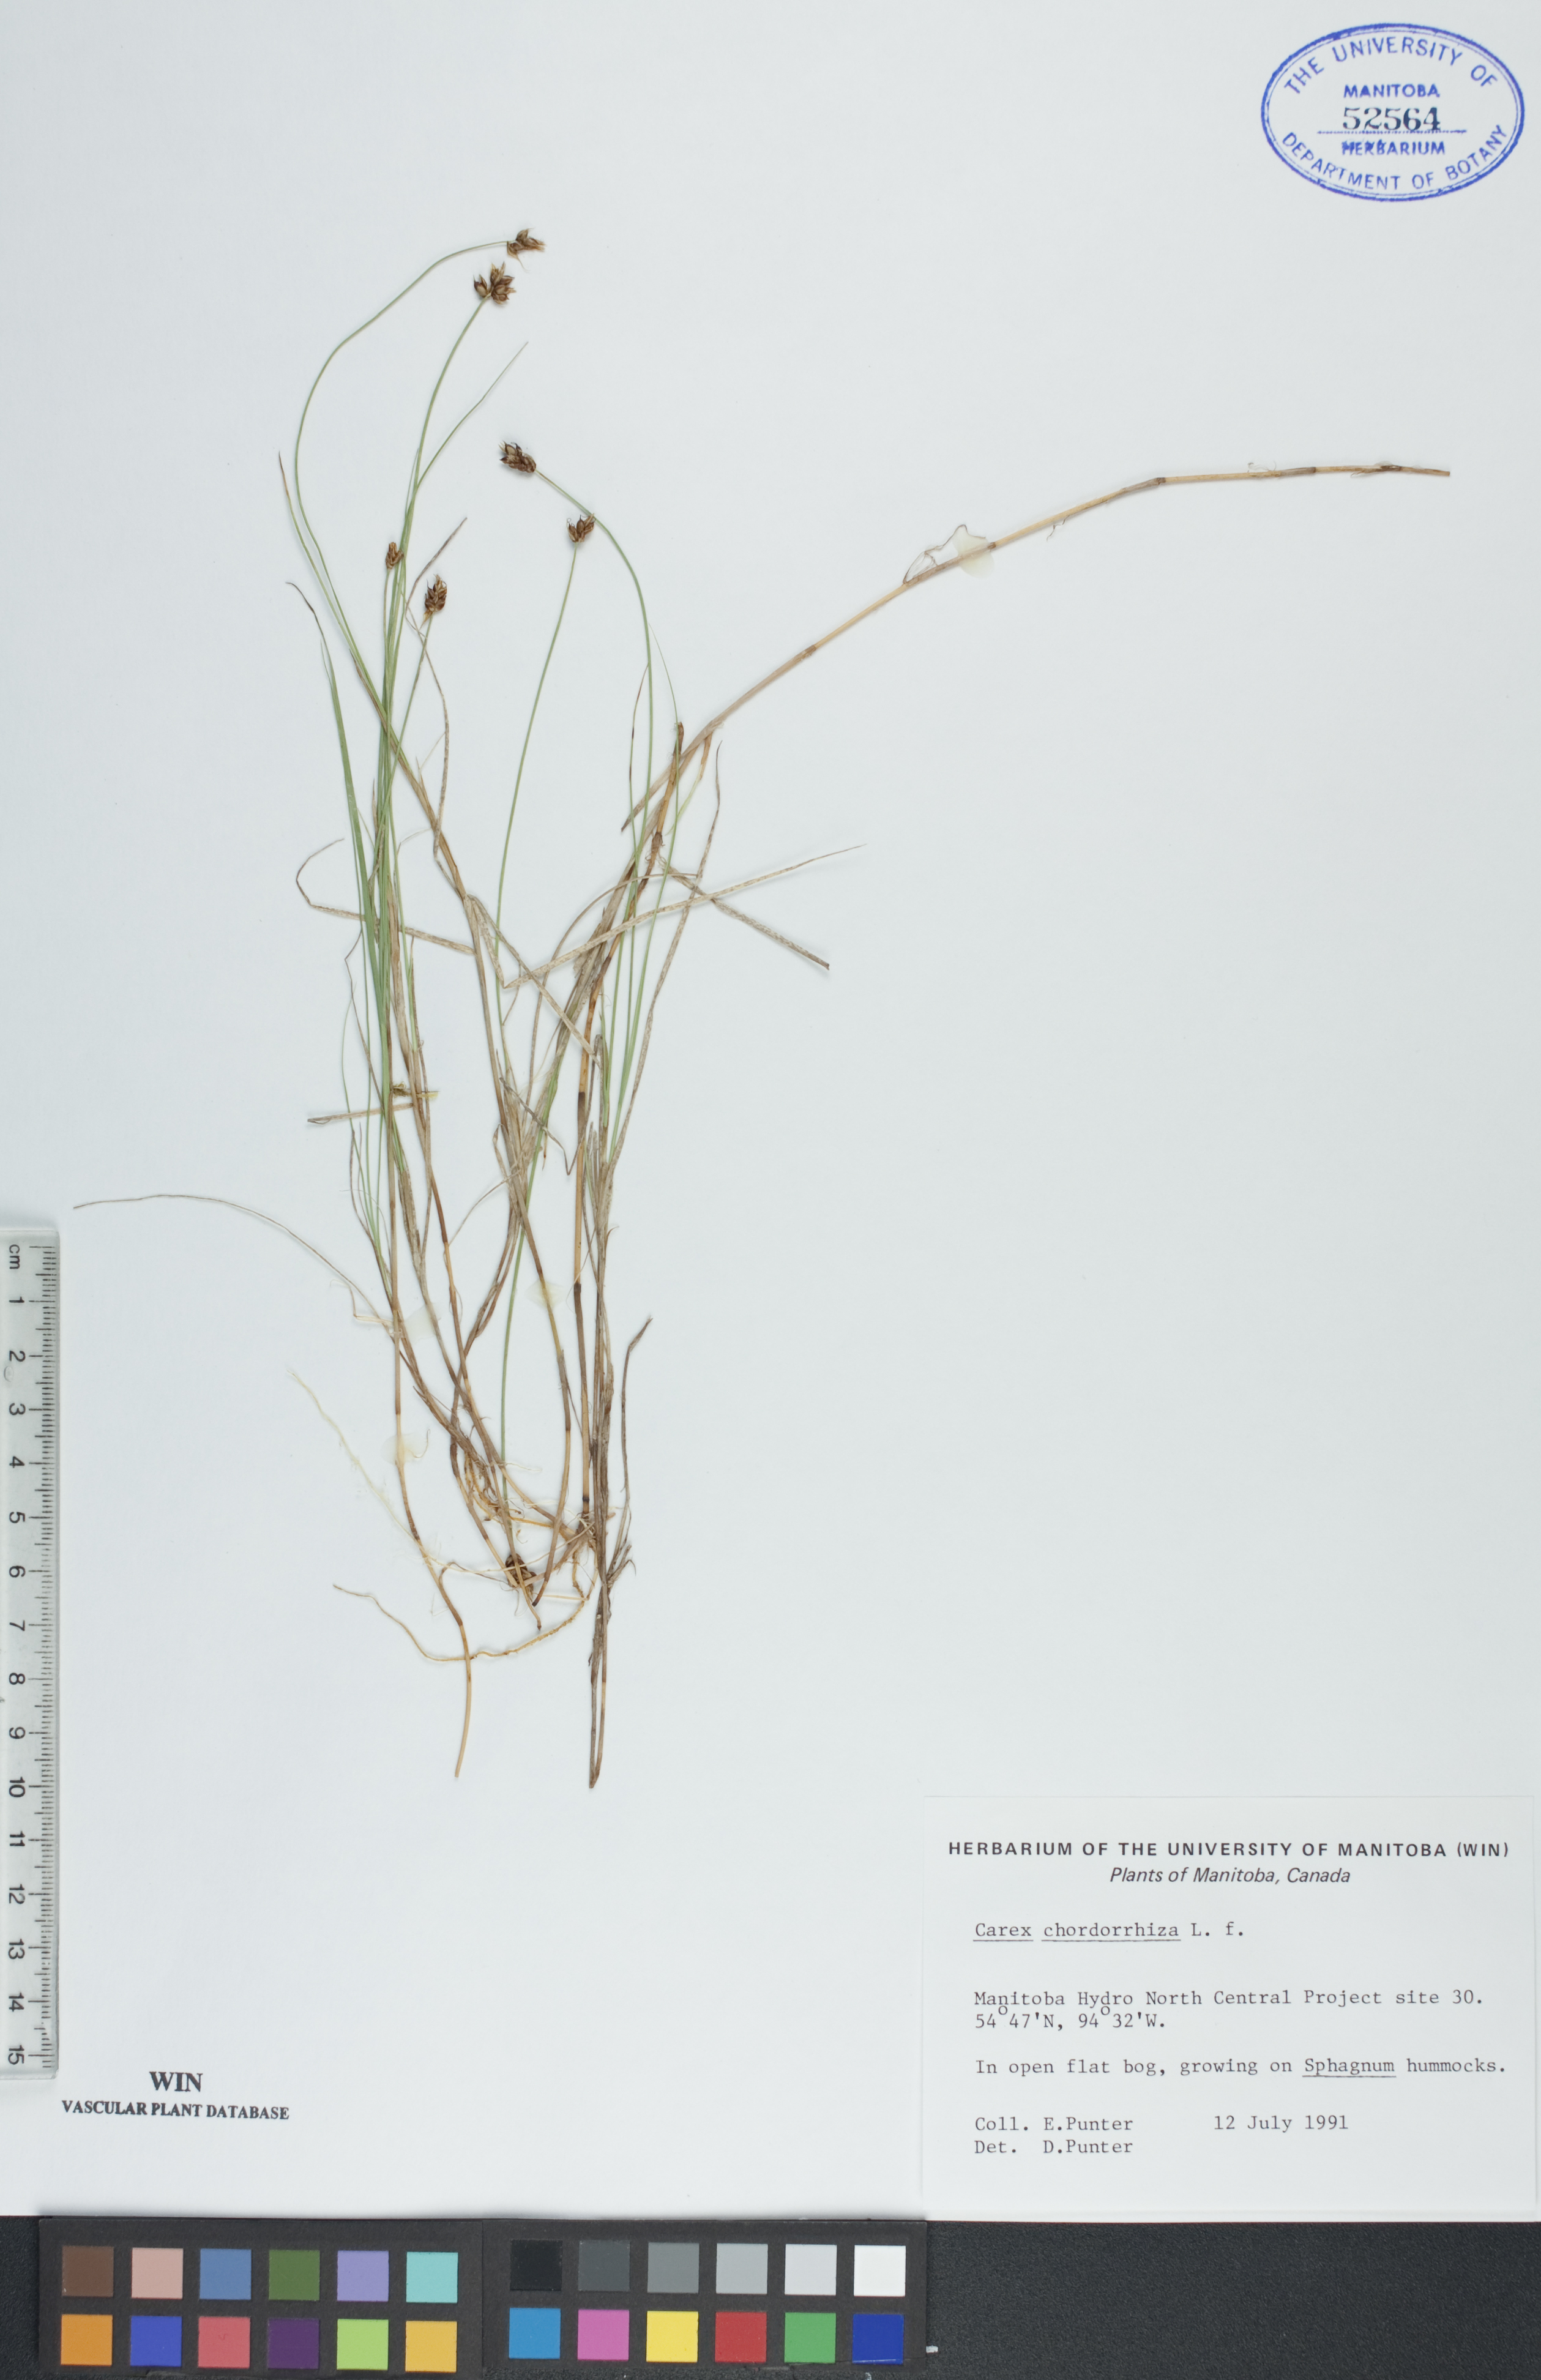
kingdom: Plantae
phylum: Tracheophyta
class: Liliopsida
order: Poales
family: Cyperaceae
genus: Carex
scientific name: Carex chordorrhiza
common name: String sedge
